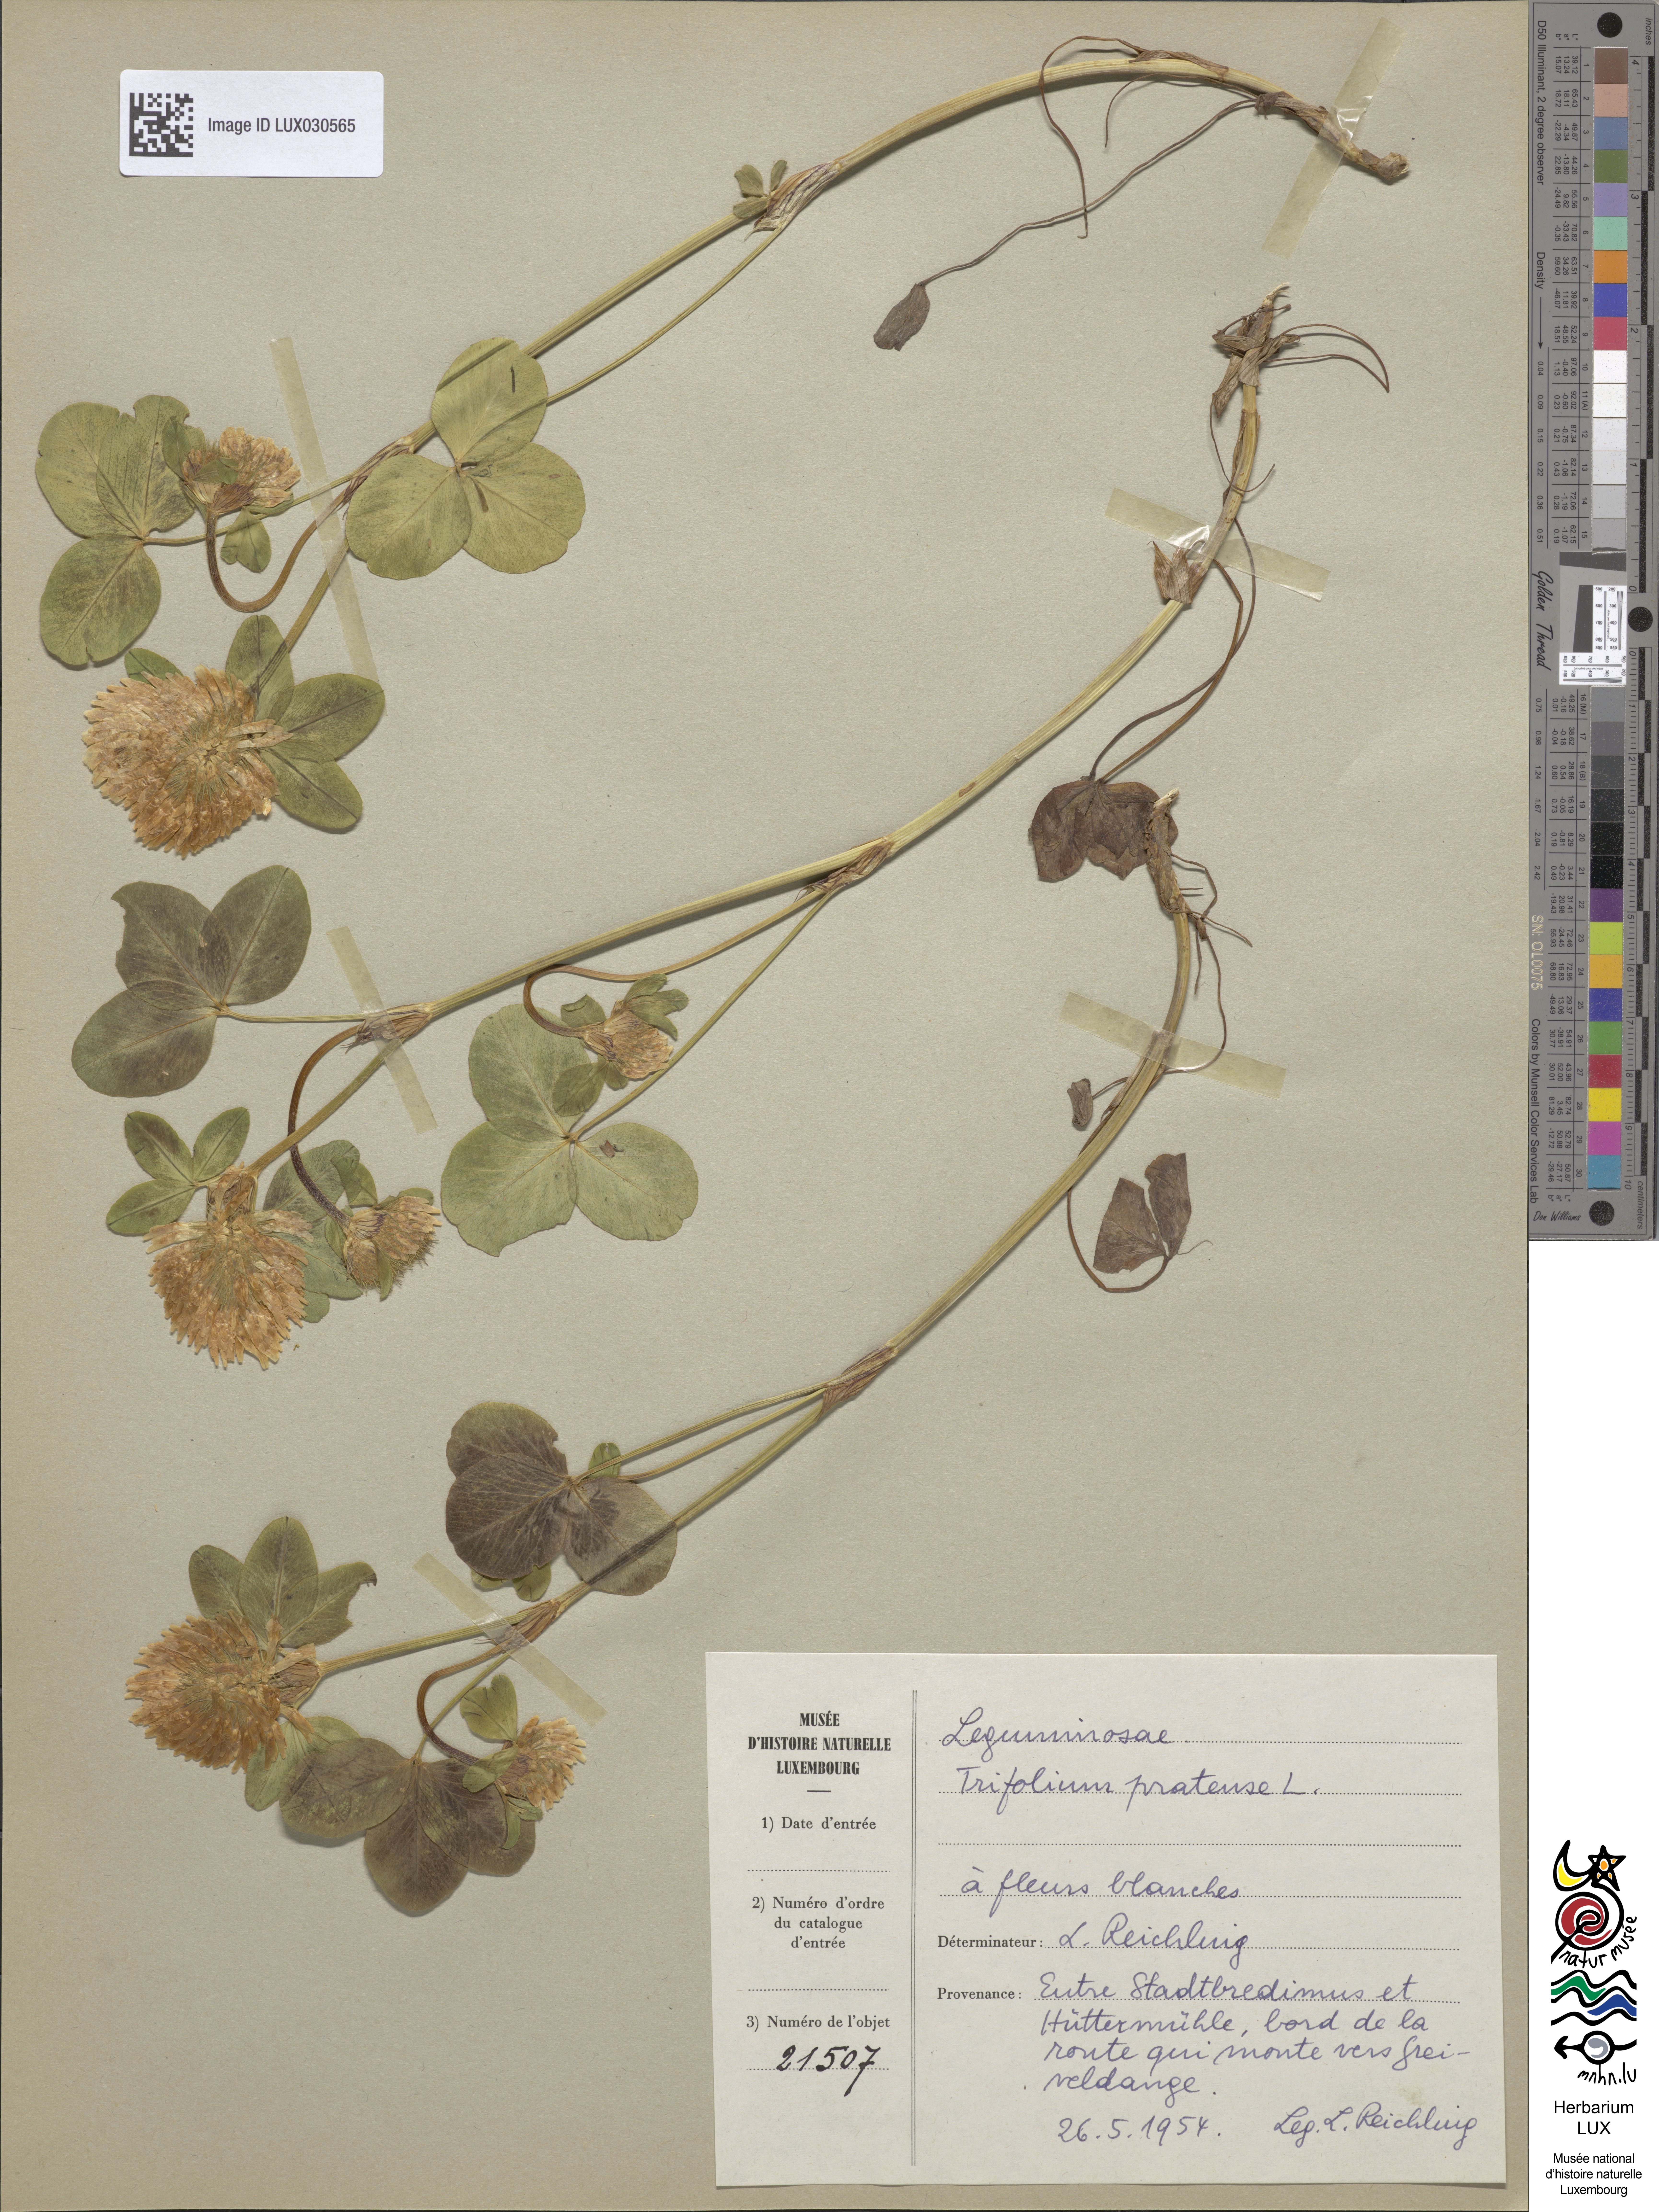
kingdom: Plantae
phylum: Tracheophyta
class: Magnoliopsida
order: Fabales
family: Fabaceae
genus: Trifolium
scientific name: Trifolium pratense
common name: Red clover
